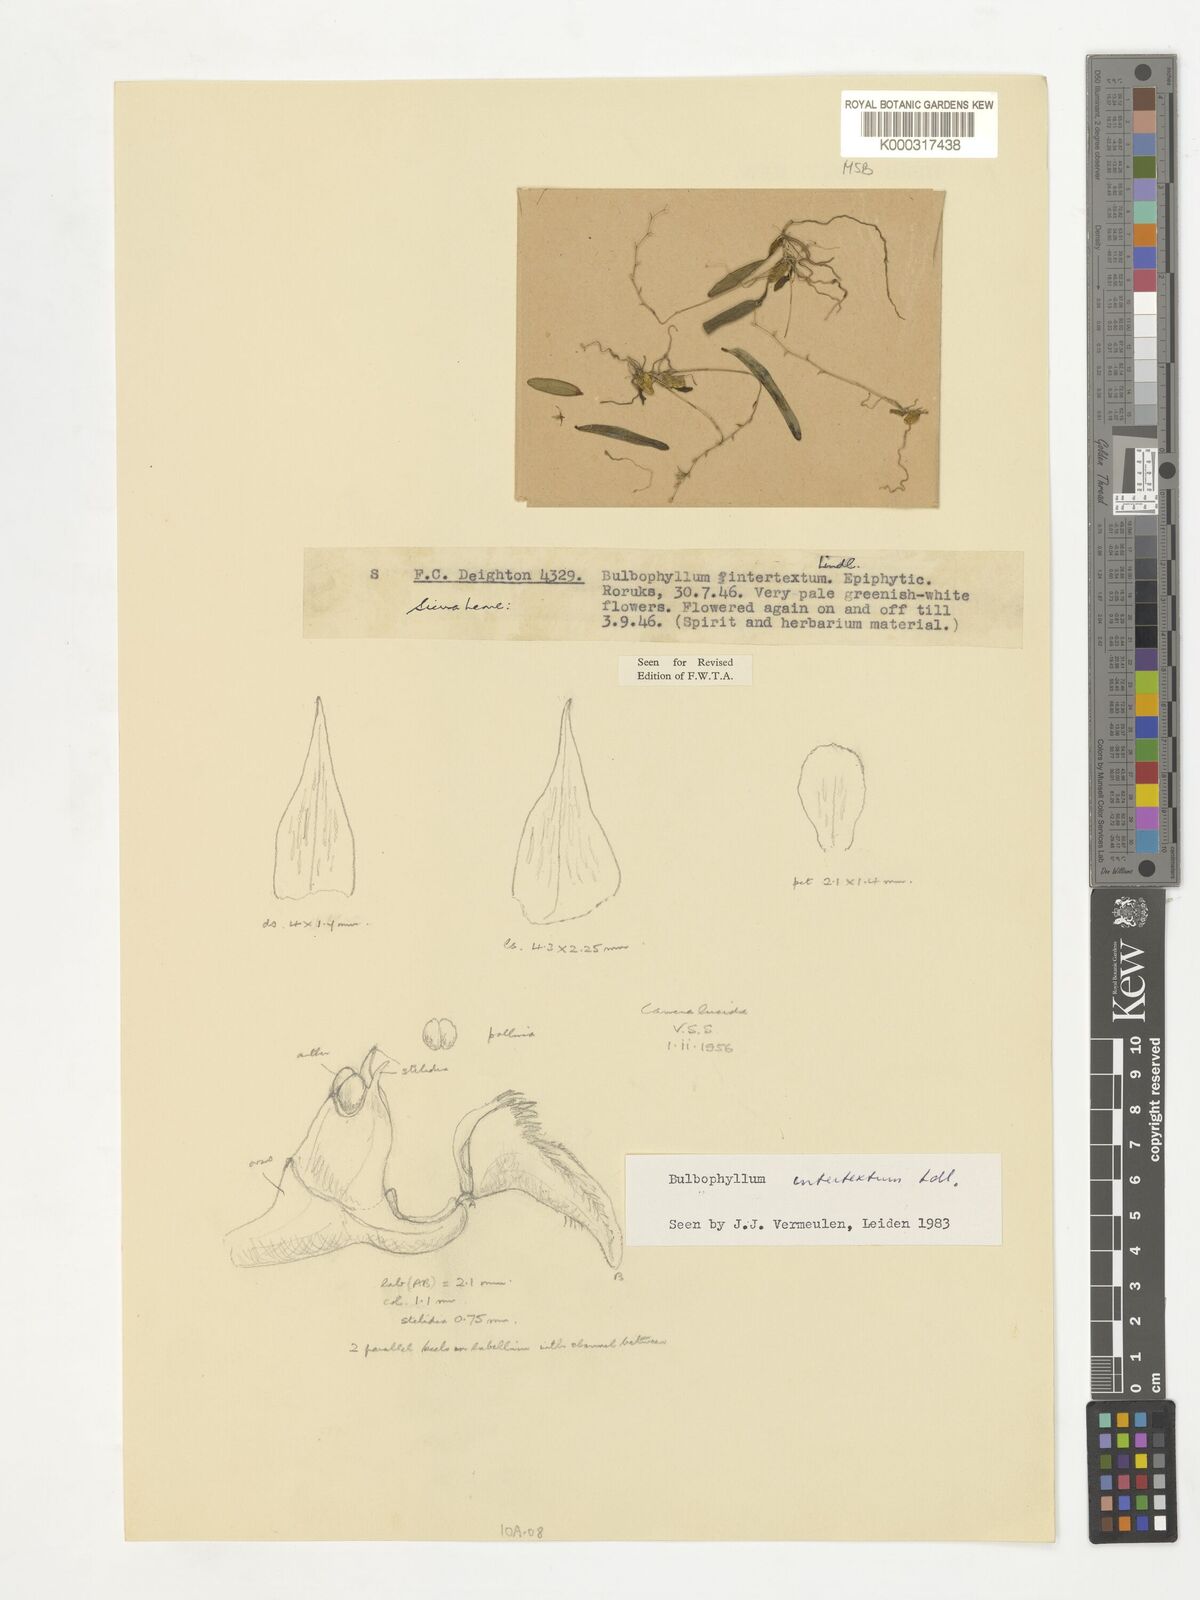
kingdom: Plantae
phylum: Tracheophyta
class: Liliopsida
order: Asparagales
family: Orchidaceae
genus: Bulbophyllum
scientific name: Bulbophyllum intertextum
